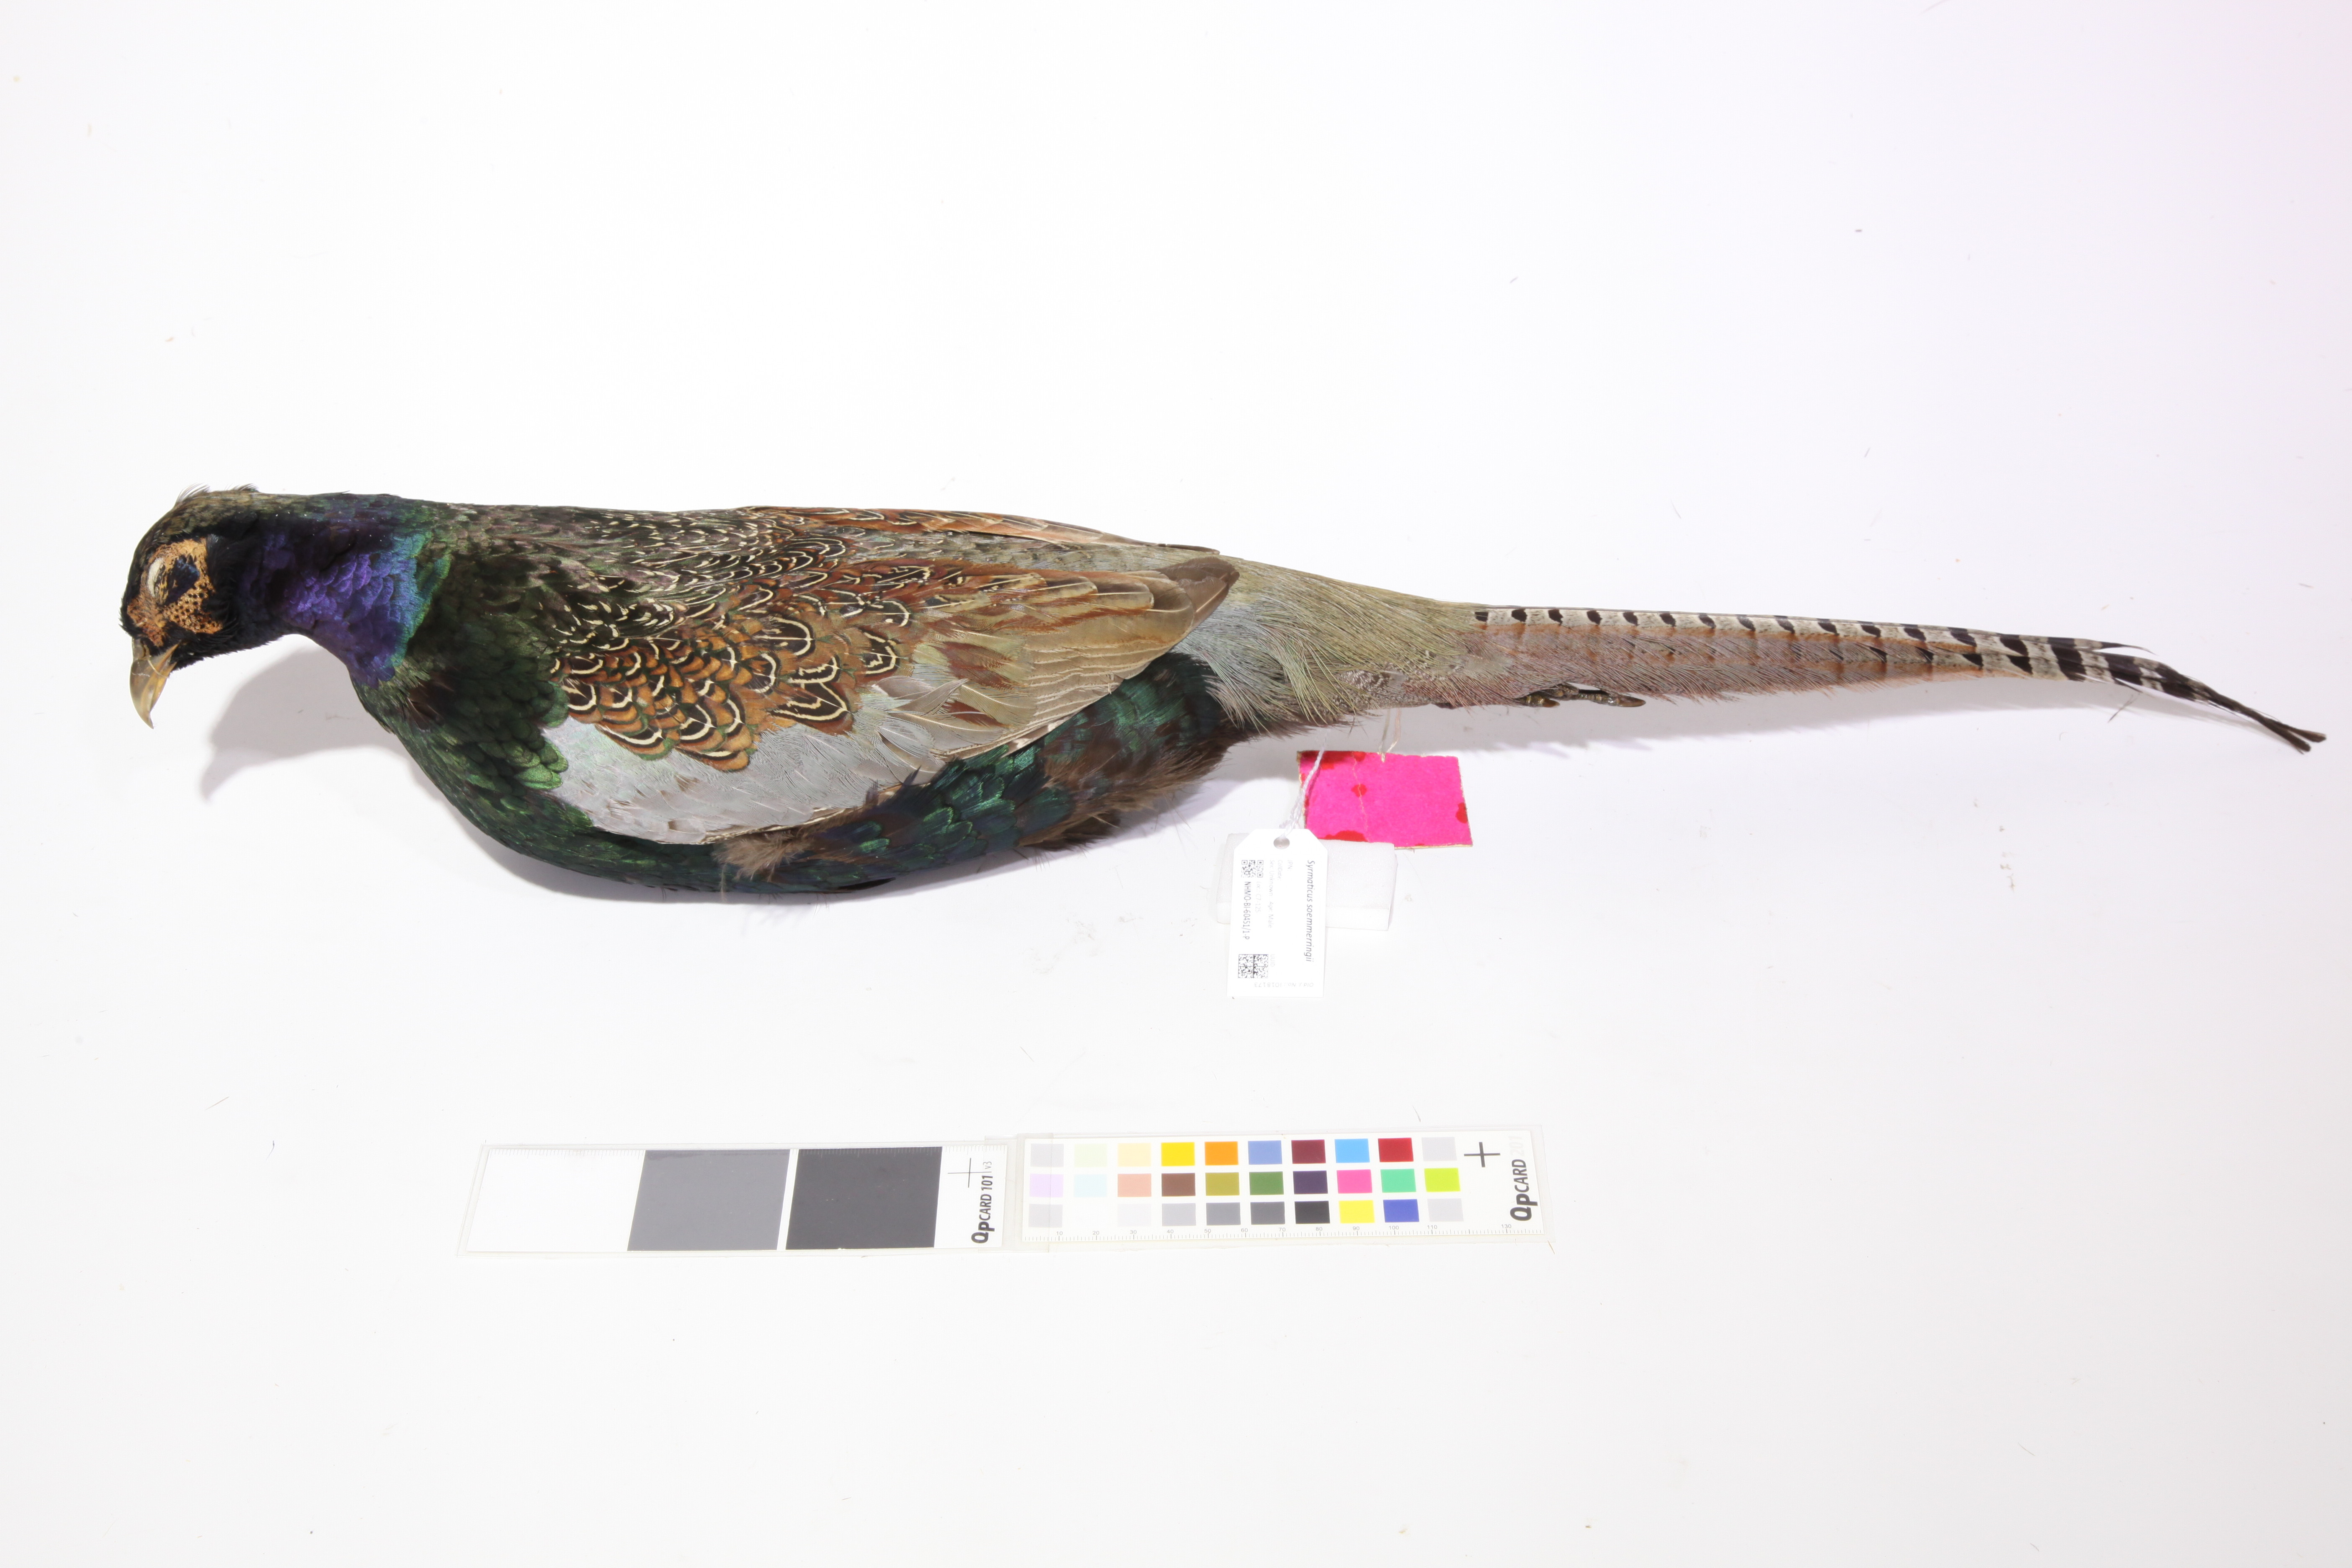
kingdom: Animalia
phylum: Chordata
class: Aves
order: Galliformes
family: Phasianidae
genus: Syrmaticus
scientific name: Syrmaticus soemmerringii
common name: Copper pheasant
